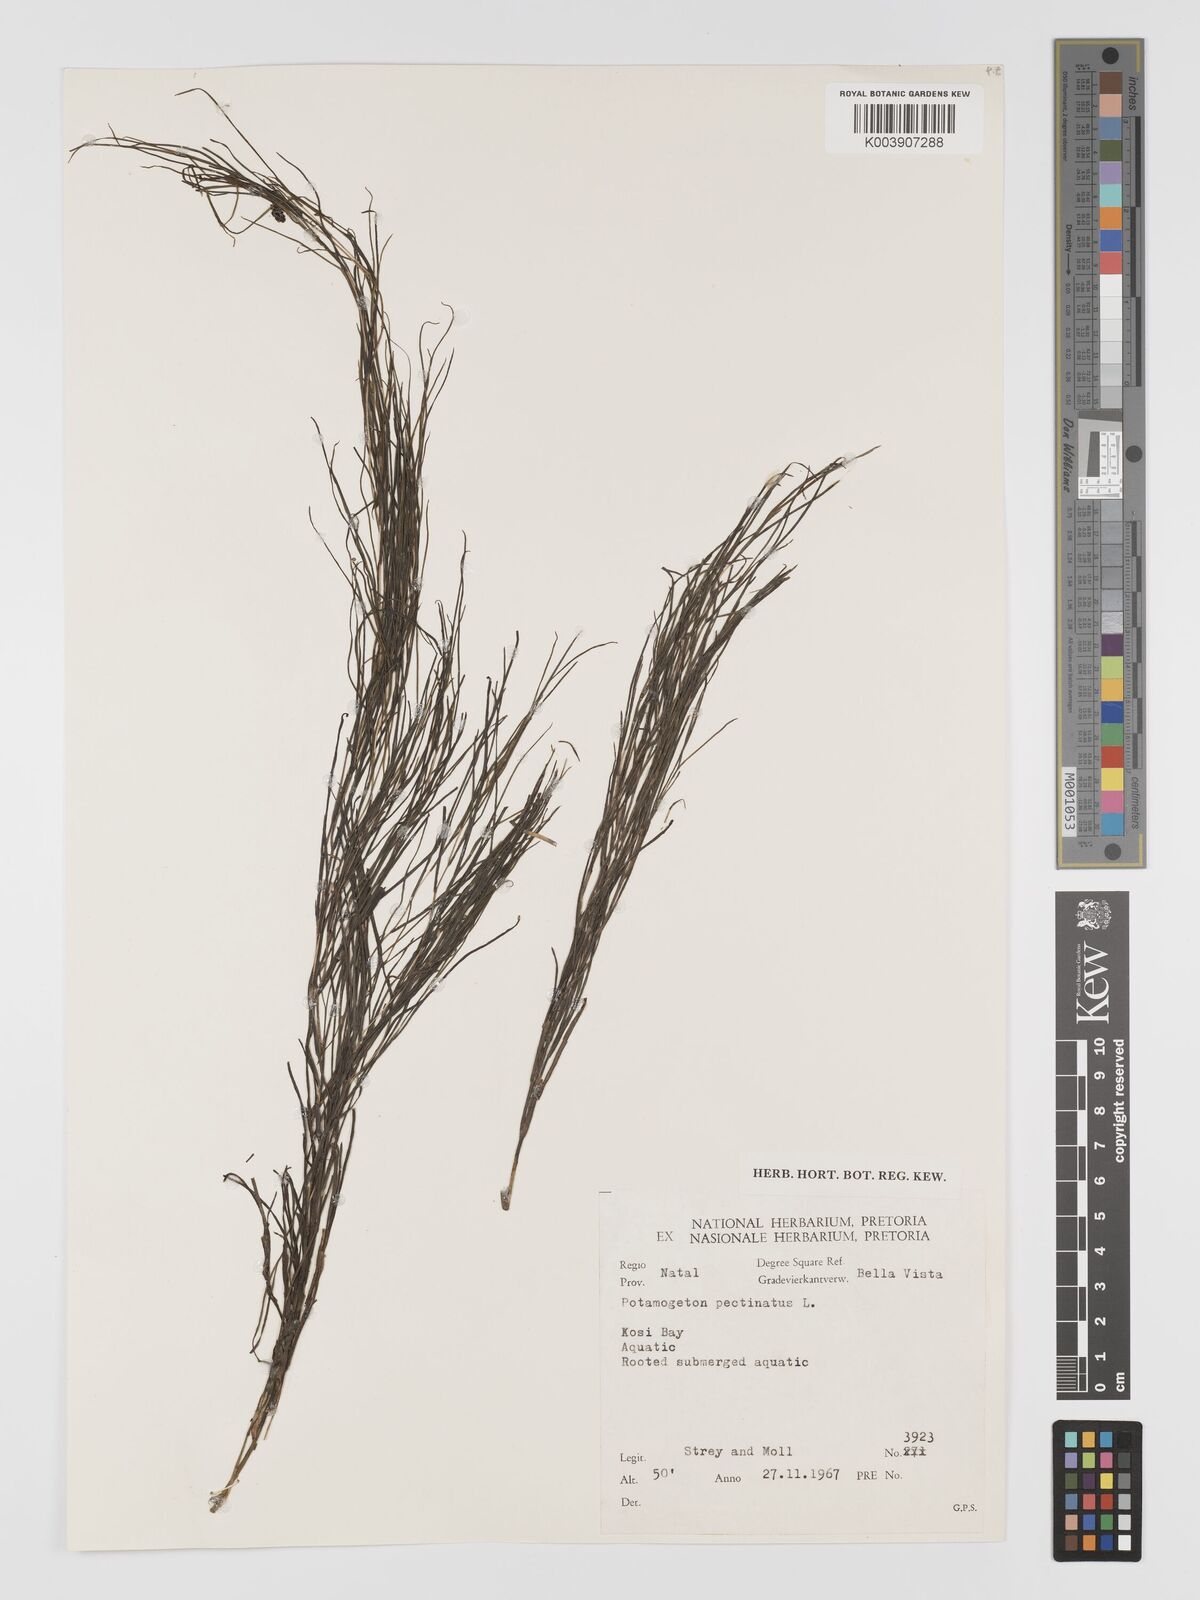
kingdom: Plantae
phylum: Tracheophyta
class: Liliopsida
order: Alismatales
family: Potamogetonaceae
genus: Stuckenia
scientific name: Stuckenia pectinata
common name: Sago pondweed
